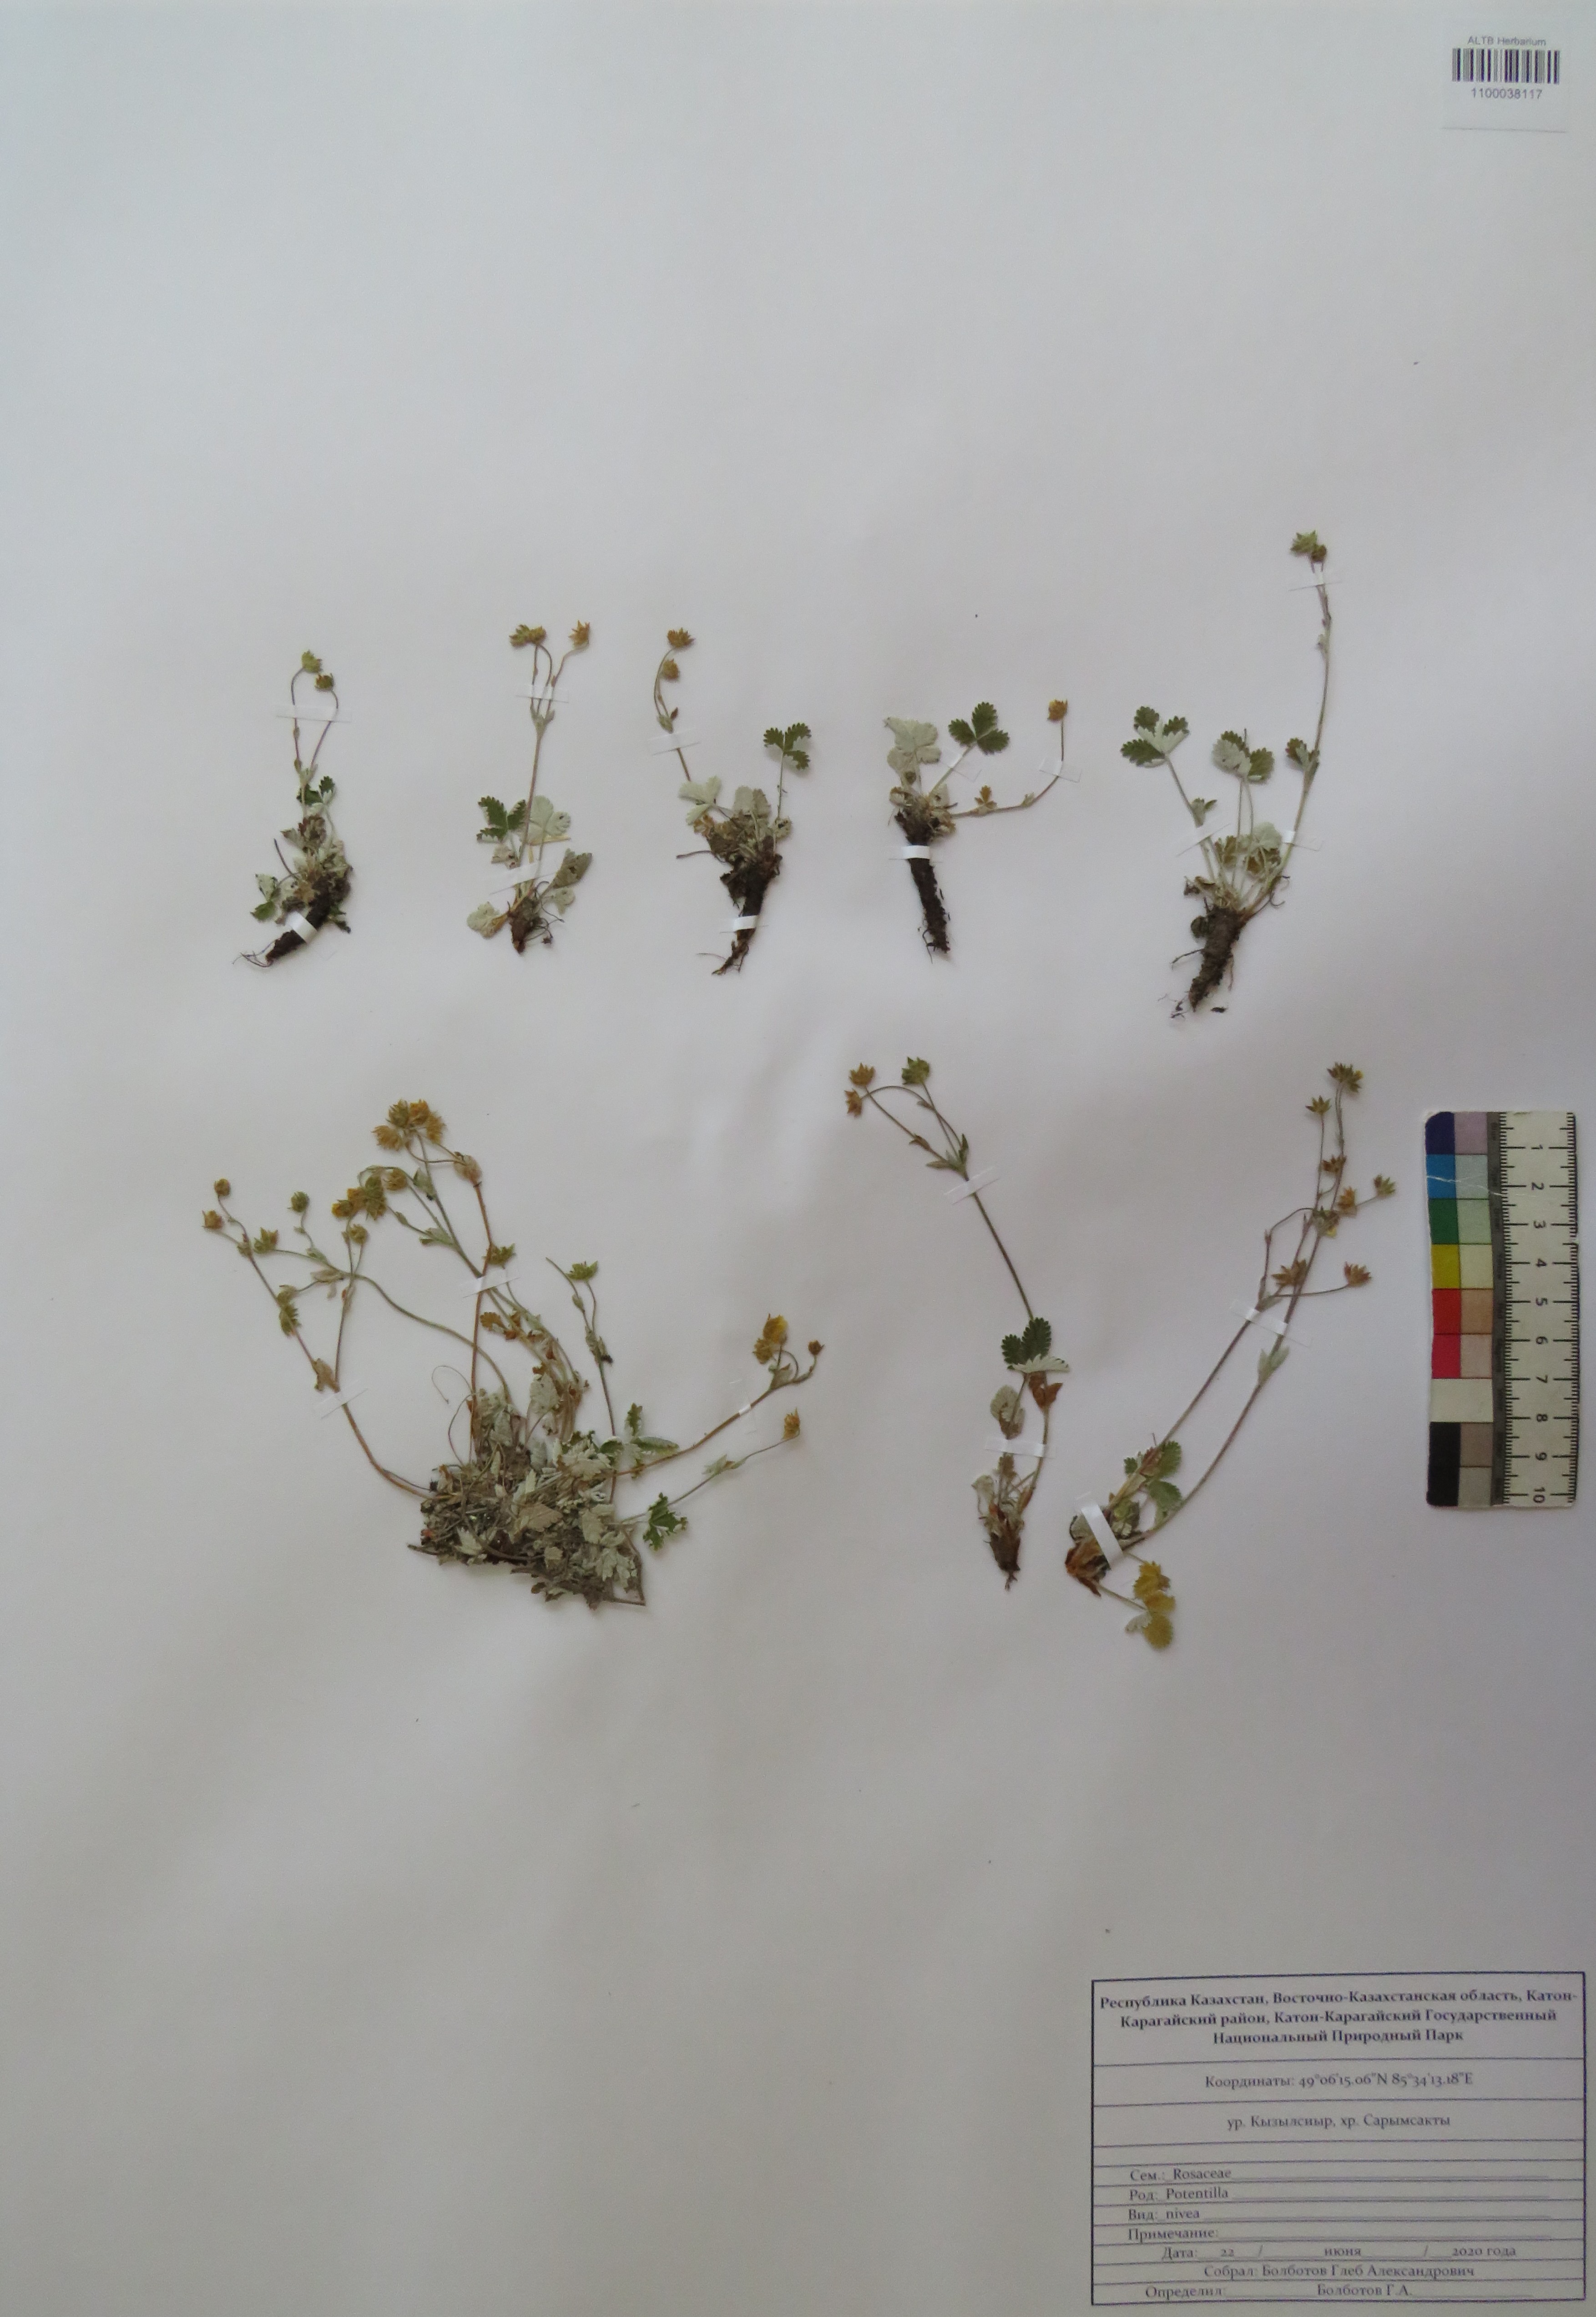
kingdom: Plantae
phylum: Tracheophyta
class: Magnoliopsida
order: Rosales
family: Rosaceae
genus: Potentilla
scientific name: Potentilla nivea
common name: Snow cinquefoil
